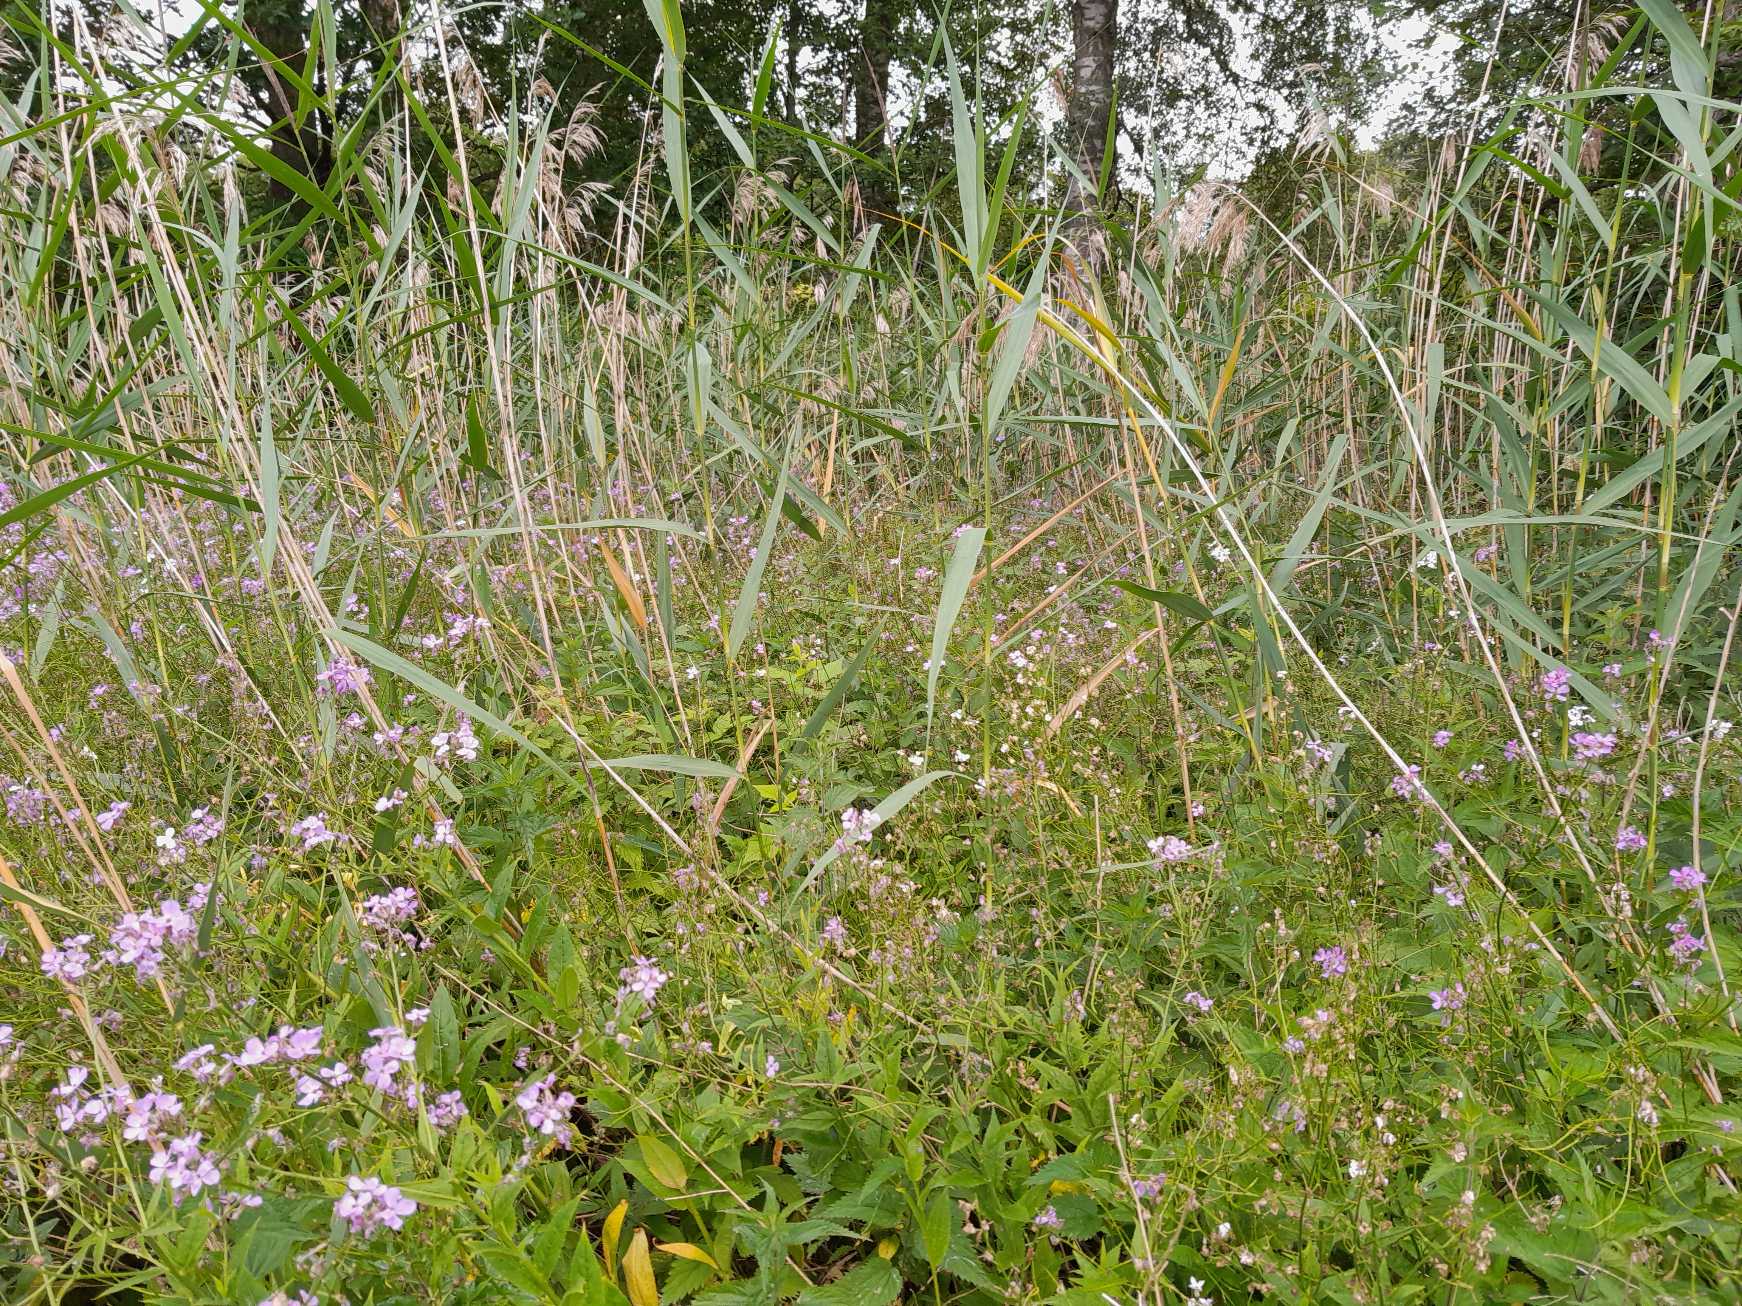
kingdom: Animalia
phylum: Arthropoda
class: Insecta
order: Diptera
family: Cecidomyiidae
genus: Contarinia
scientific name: Contarinia
